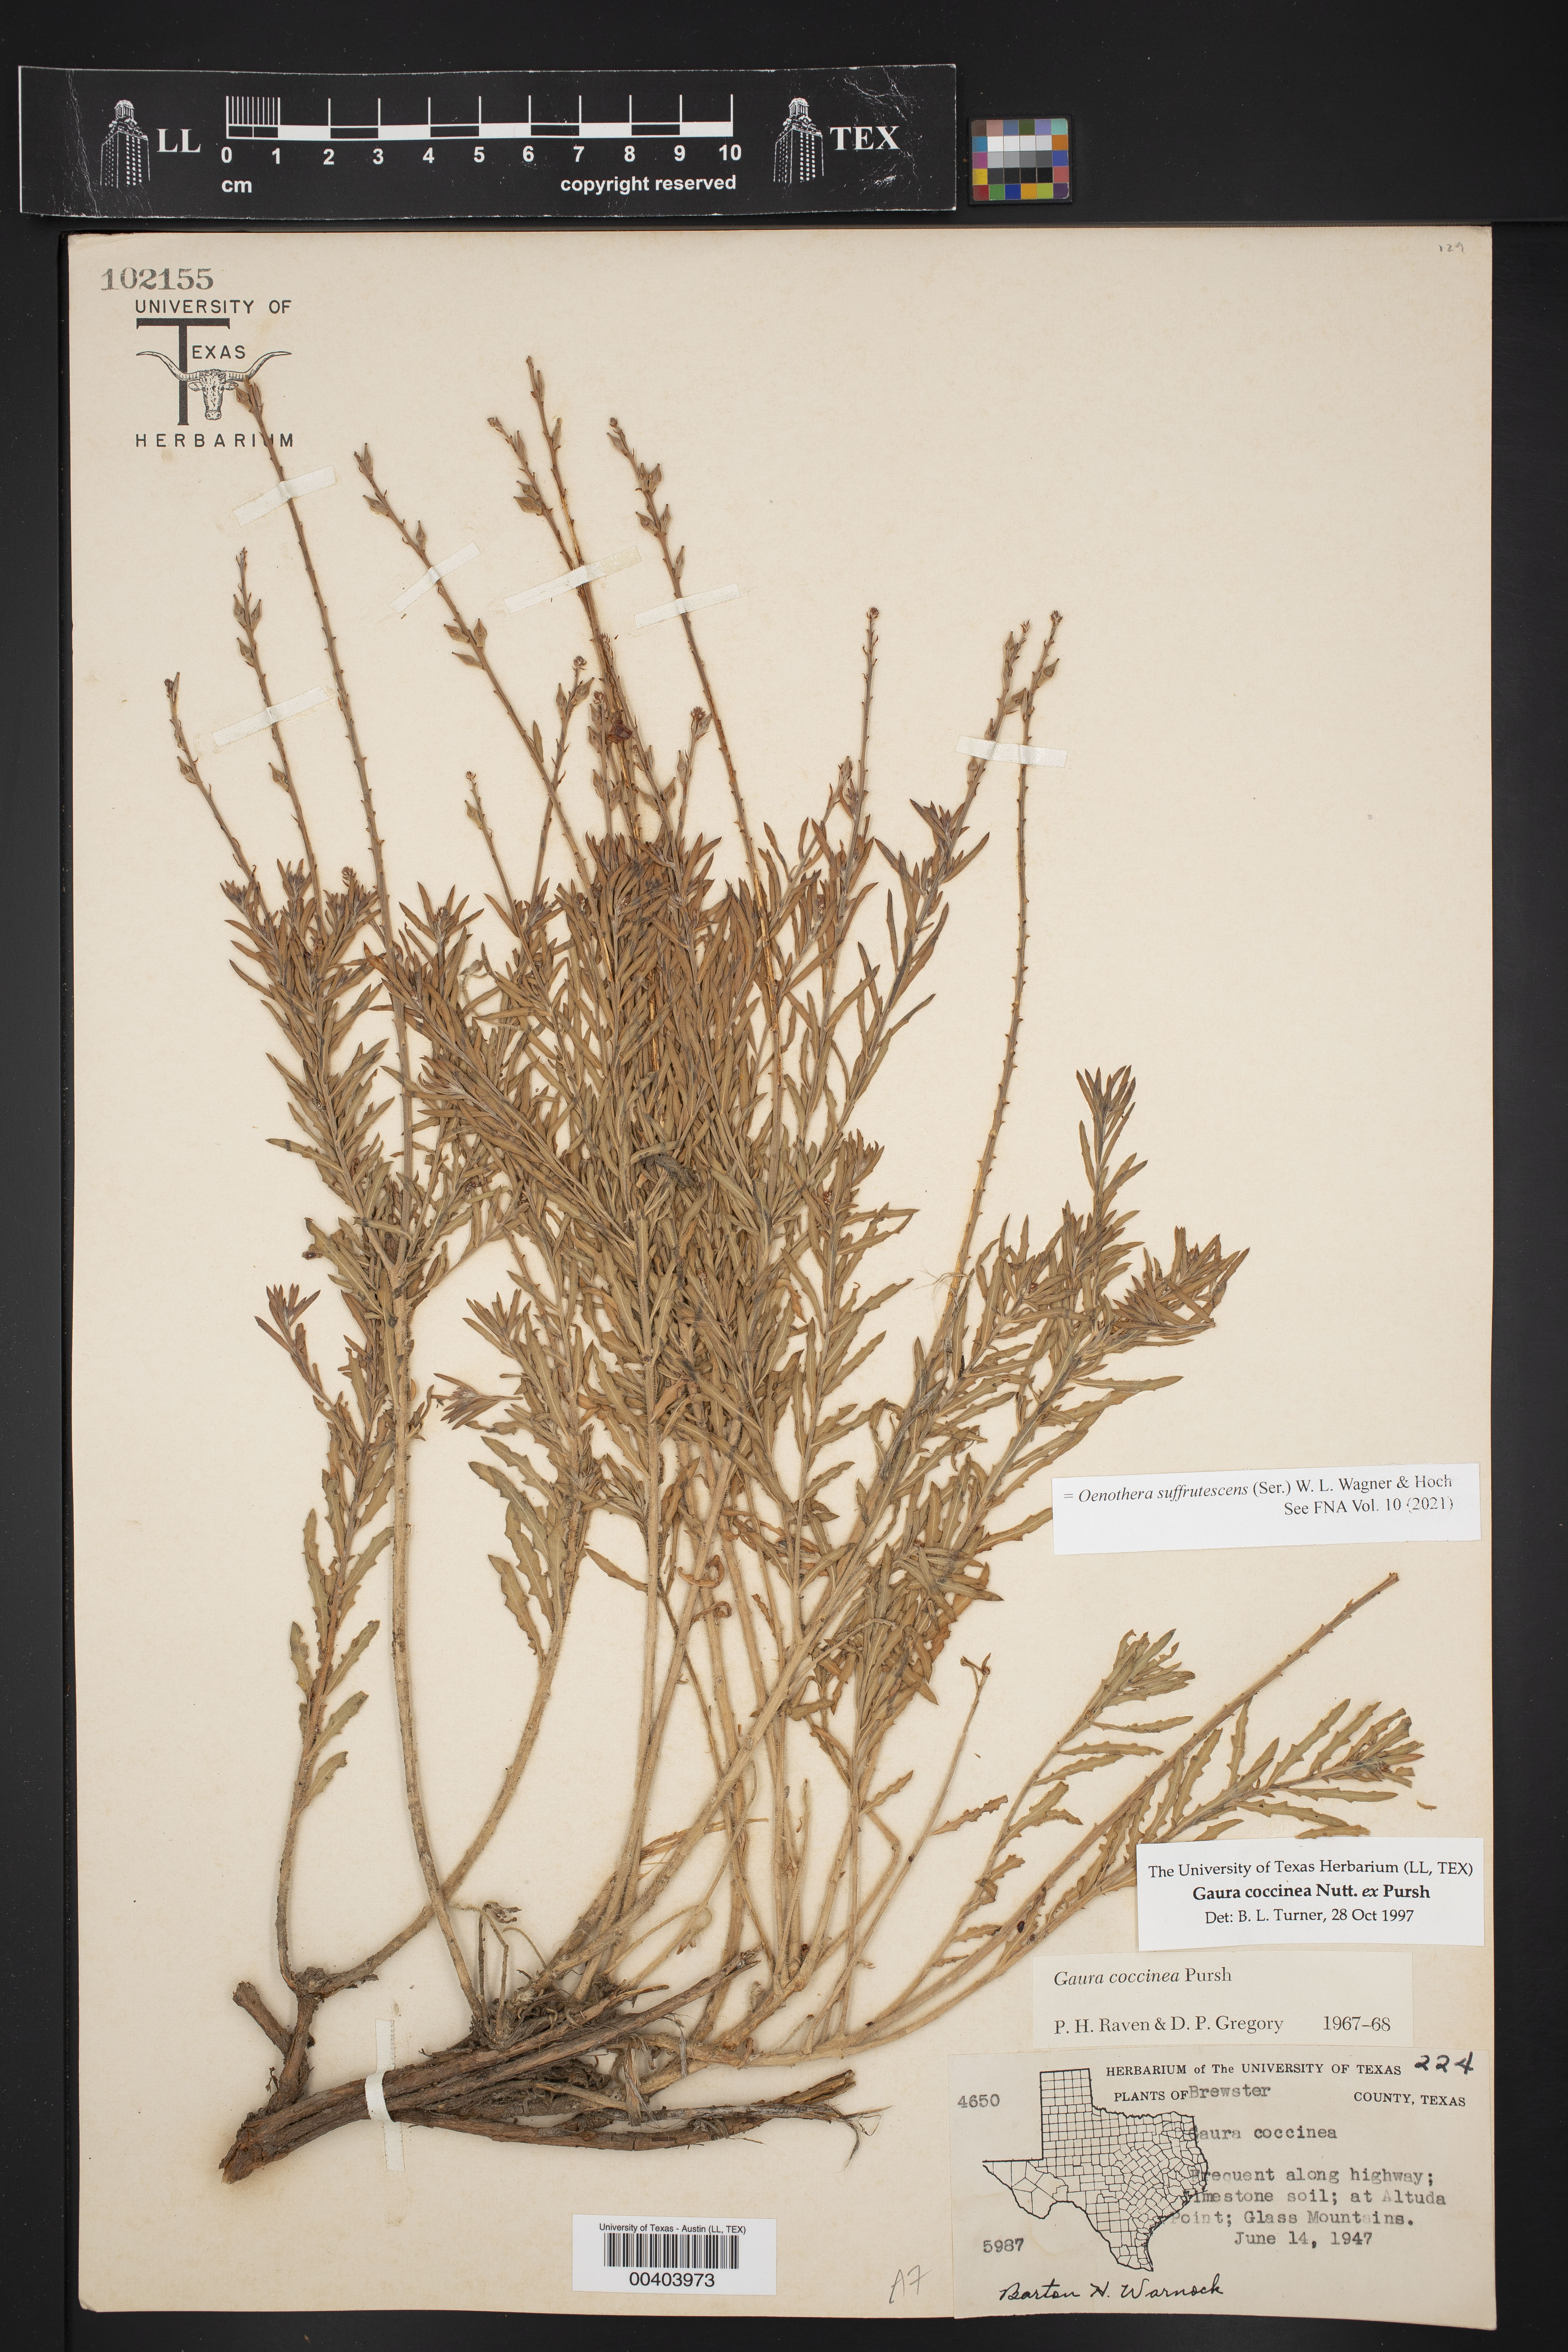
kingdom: Plantae
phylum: Tracheophyta
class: Magnoliopsida
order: Myrtales
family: Onagraceae
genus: Oenothera
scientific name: Oenothera suffrutescens
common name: Scarlet beeblossom
